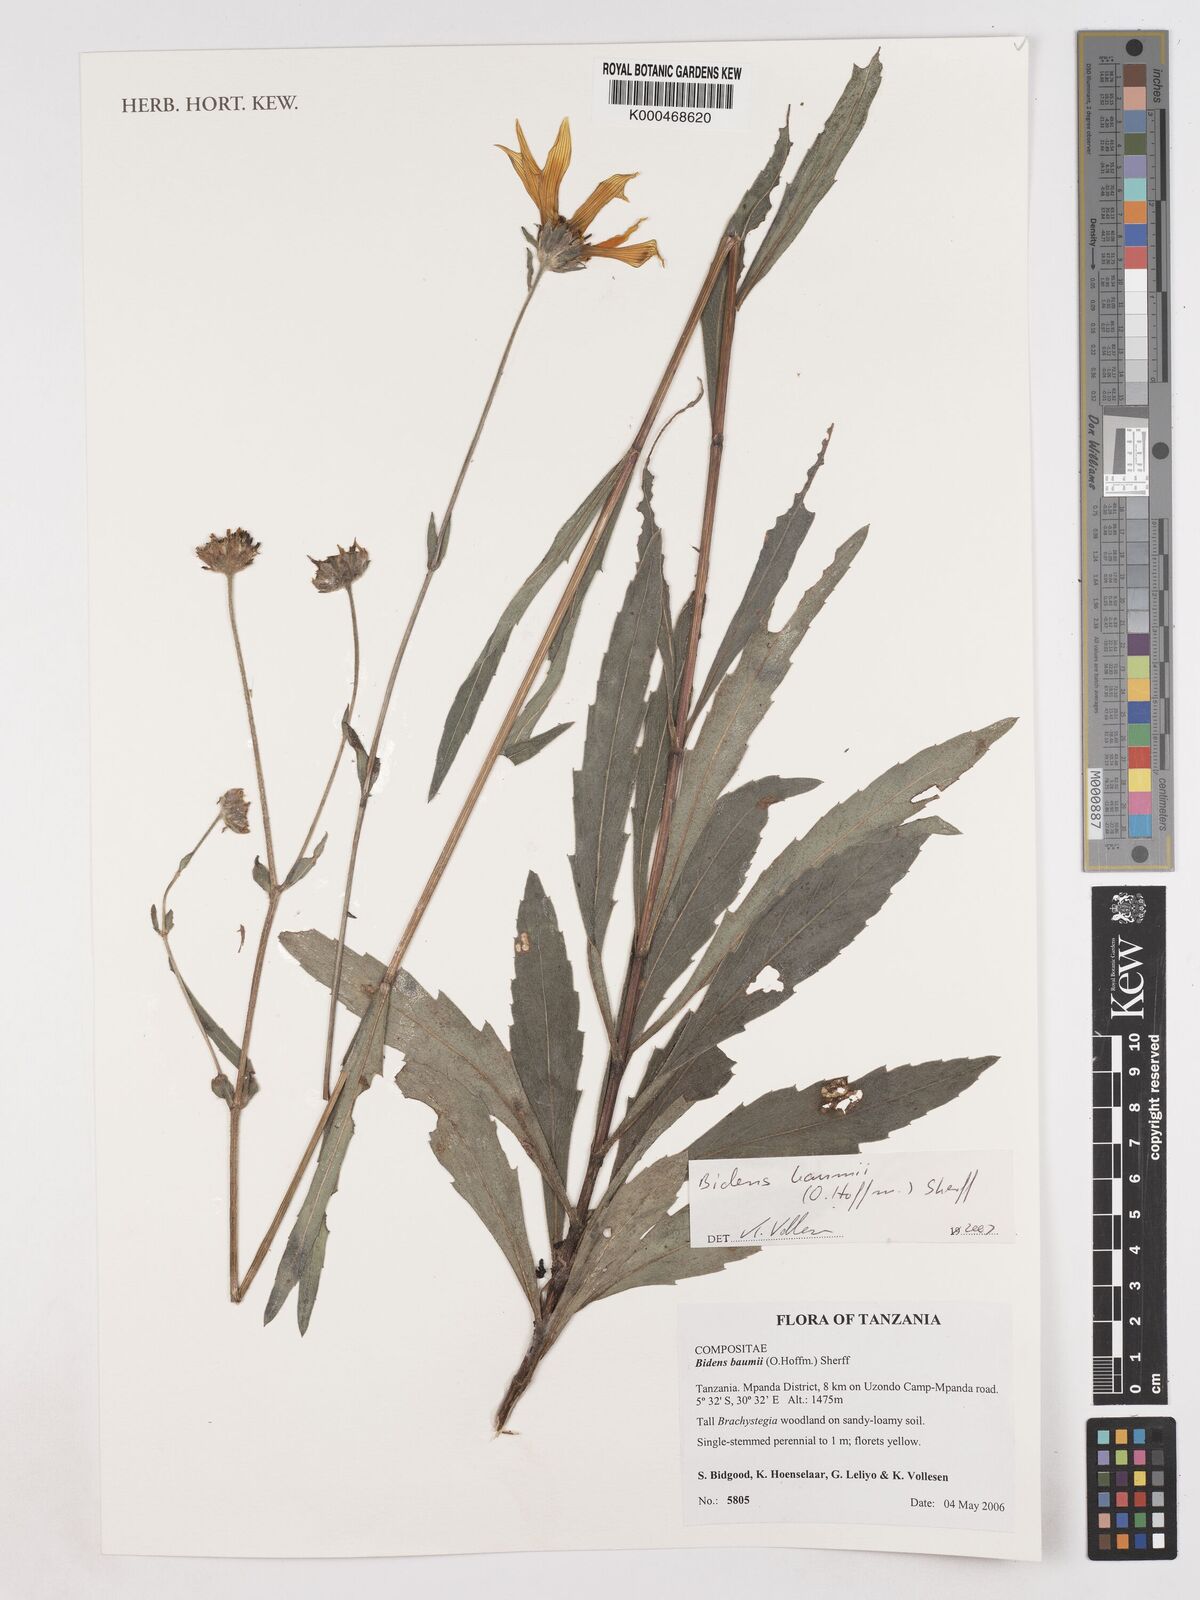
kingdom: Plantae
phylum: Tracheophyta
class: Magnoliopsida
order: Asterales
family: Asteraceae
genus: Bidens
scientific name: Bidens baumii
